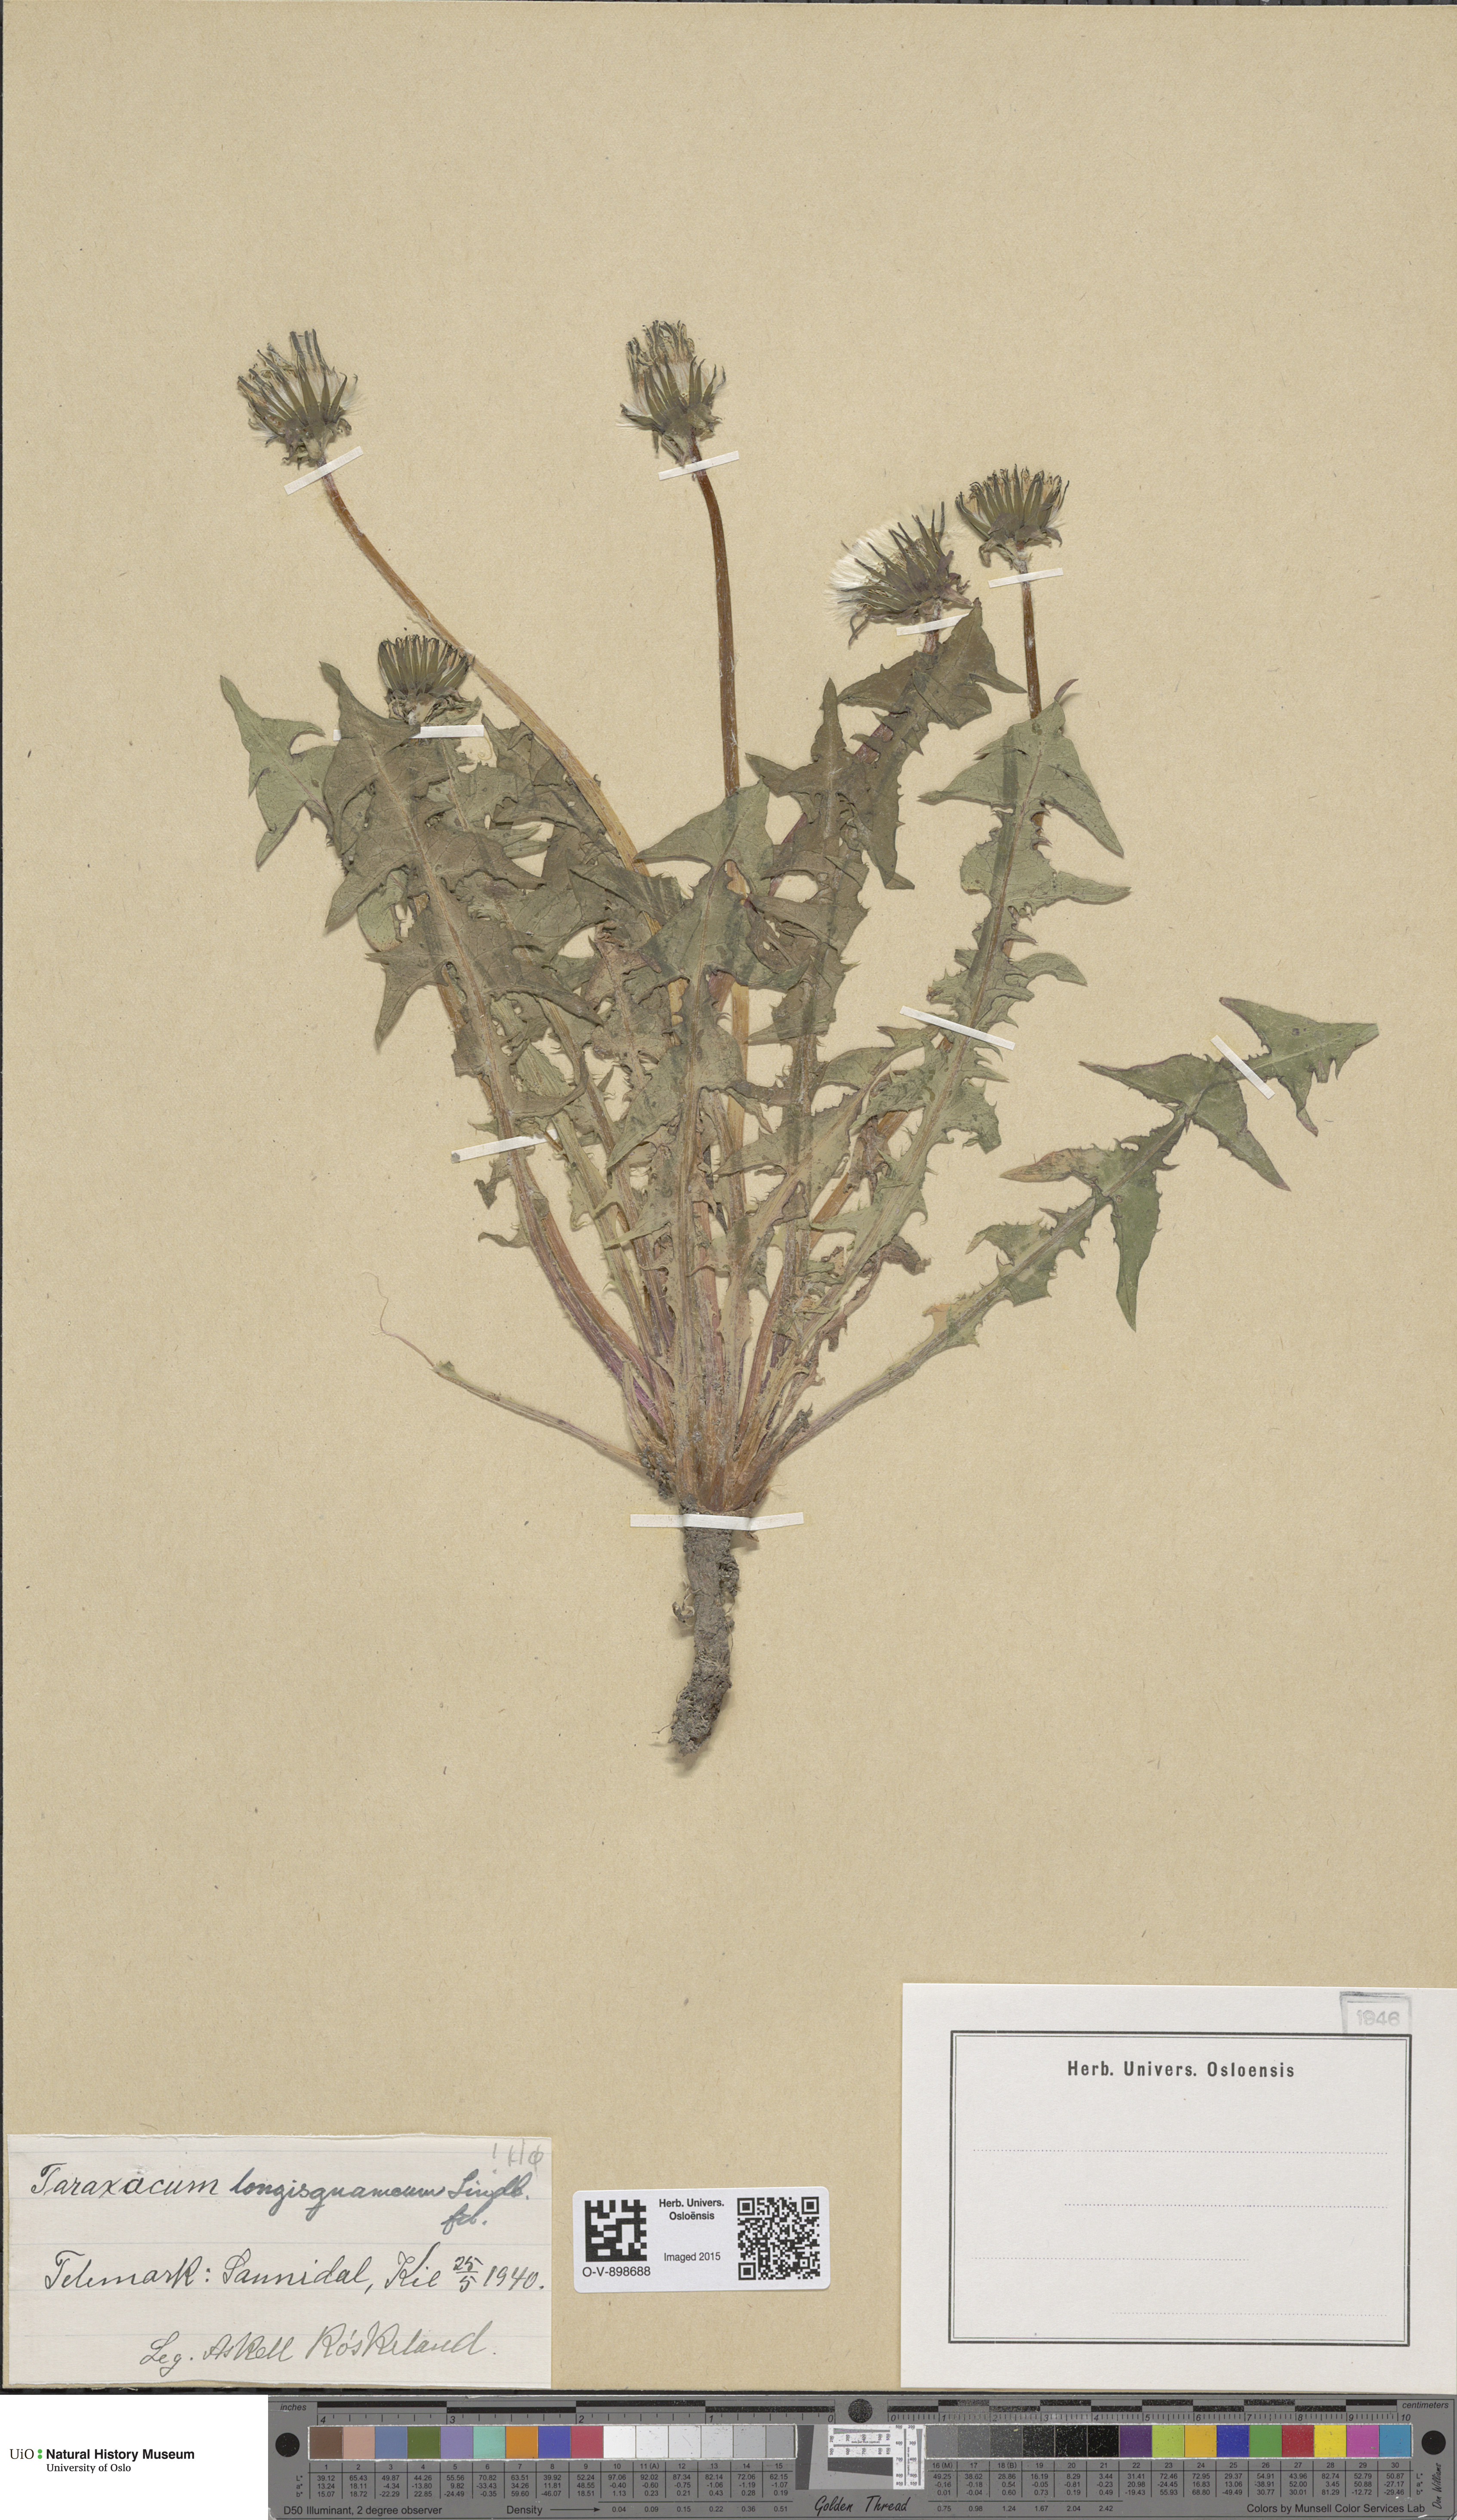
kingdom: Plantae
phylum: Tracheophyta
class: Magnoliopsida
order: Asterales
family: Asteraceae
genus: Taraxacum
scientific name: Taraxacum angustisquameum
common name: Multilobed dandelion
